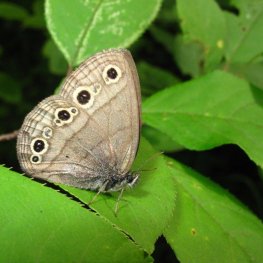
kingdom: Animalia
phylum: Arthropoda
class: Insecta
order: Lepidoptera
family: Nymphalidae
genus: Euptychia
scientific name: Euptychia cymela
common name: Little Wood Satyr
